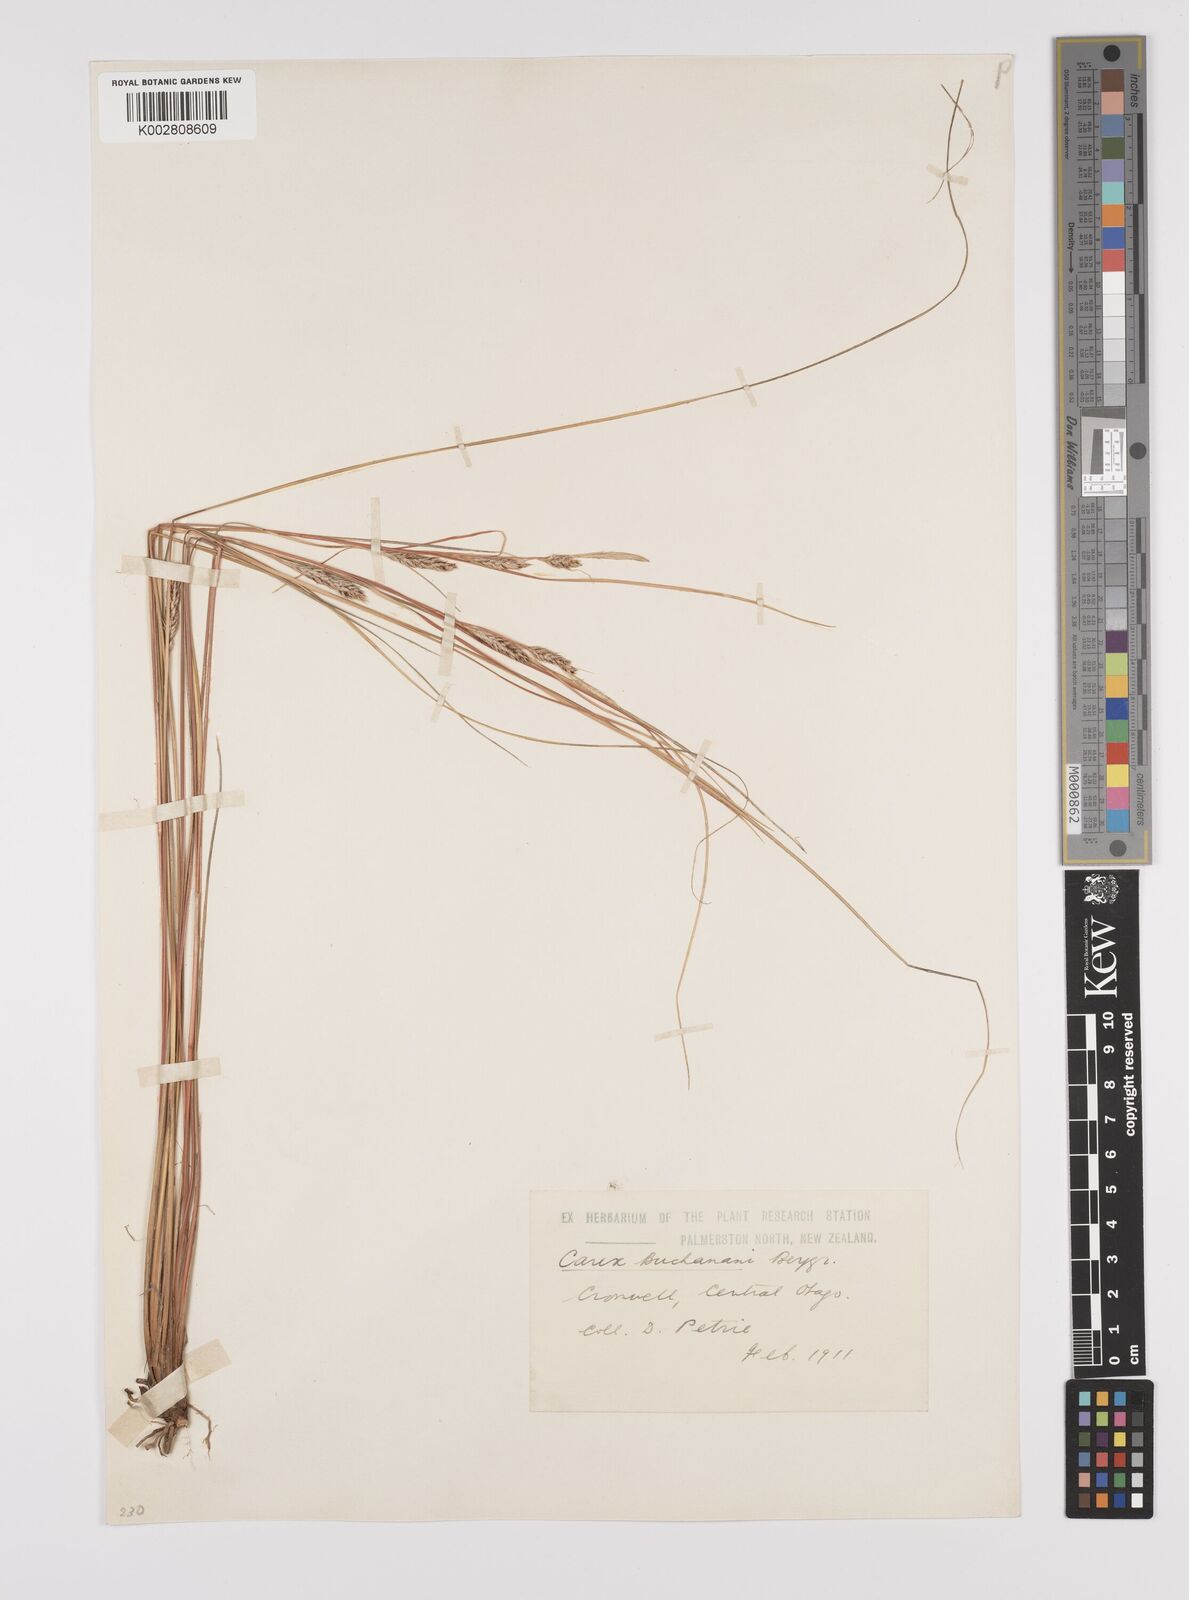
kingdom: Plantae
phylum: Tracheophyta
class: Liliopsida
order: Poales
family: Cyperaceae
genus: Carex
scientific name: Carex flagellifera
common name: Glen murray tussock
